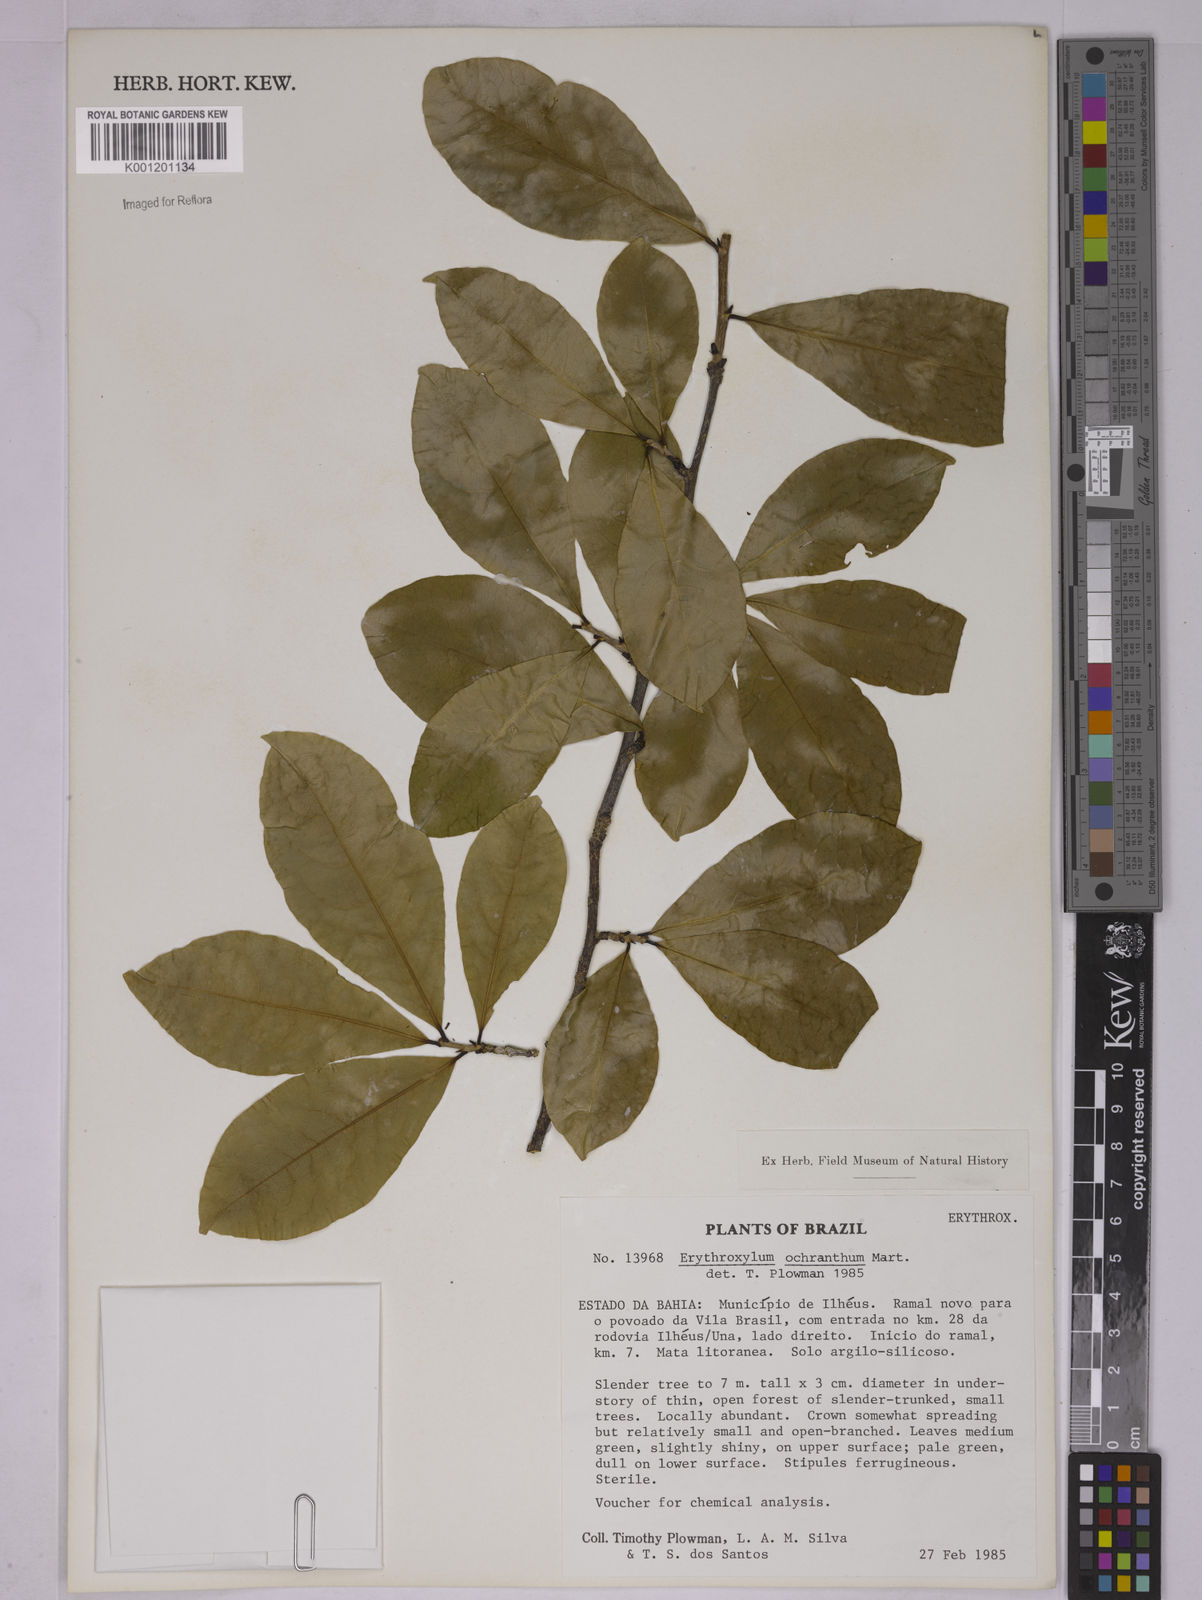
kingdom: Plantae
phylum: Tracheophyta
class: Magnoliopsida
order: Malpighiales
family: Erythroxylaceae
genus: Erythroxylum
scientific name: Erythroxylum ochranthum
